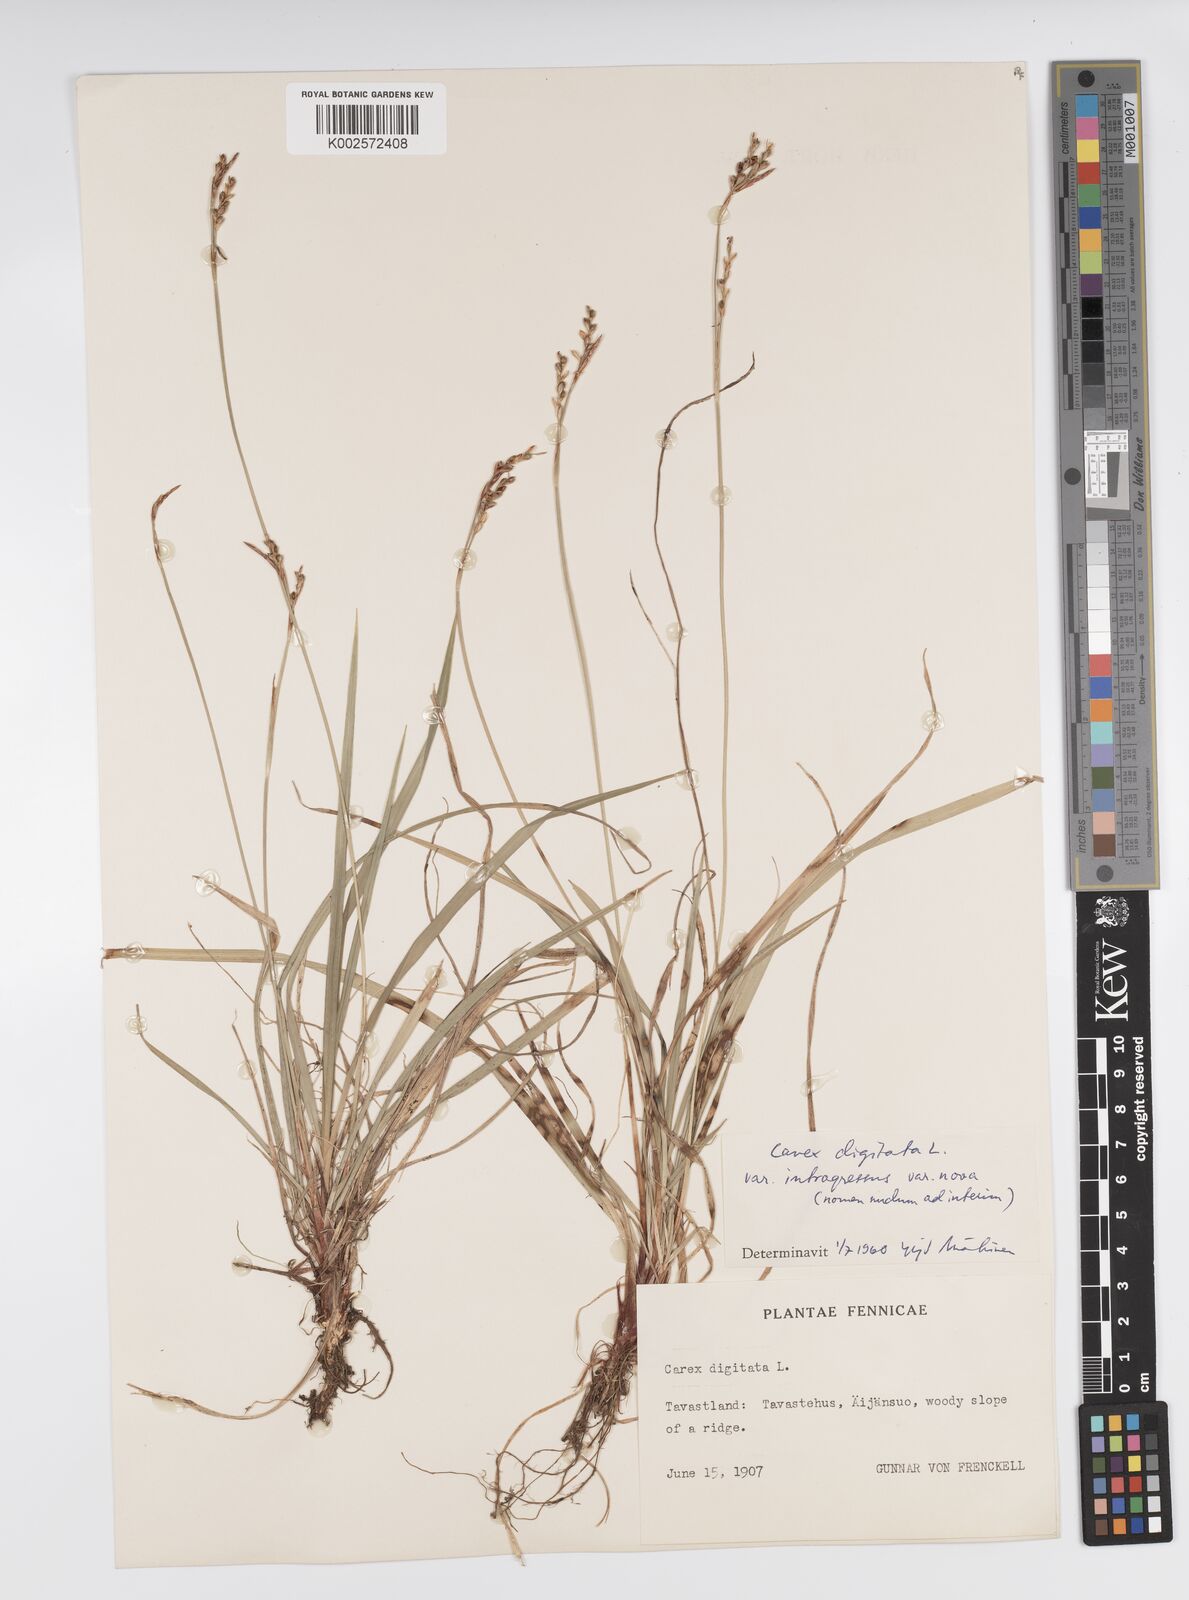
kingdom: Plantae
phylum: Tracheophyta
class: Liliopsida
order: Poales
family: Cyperaceae
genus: Carex
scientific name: Carex digitata
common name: Fingered sedge
